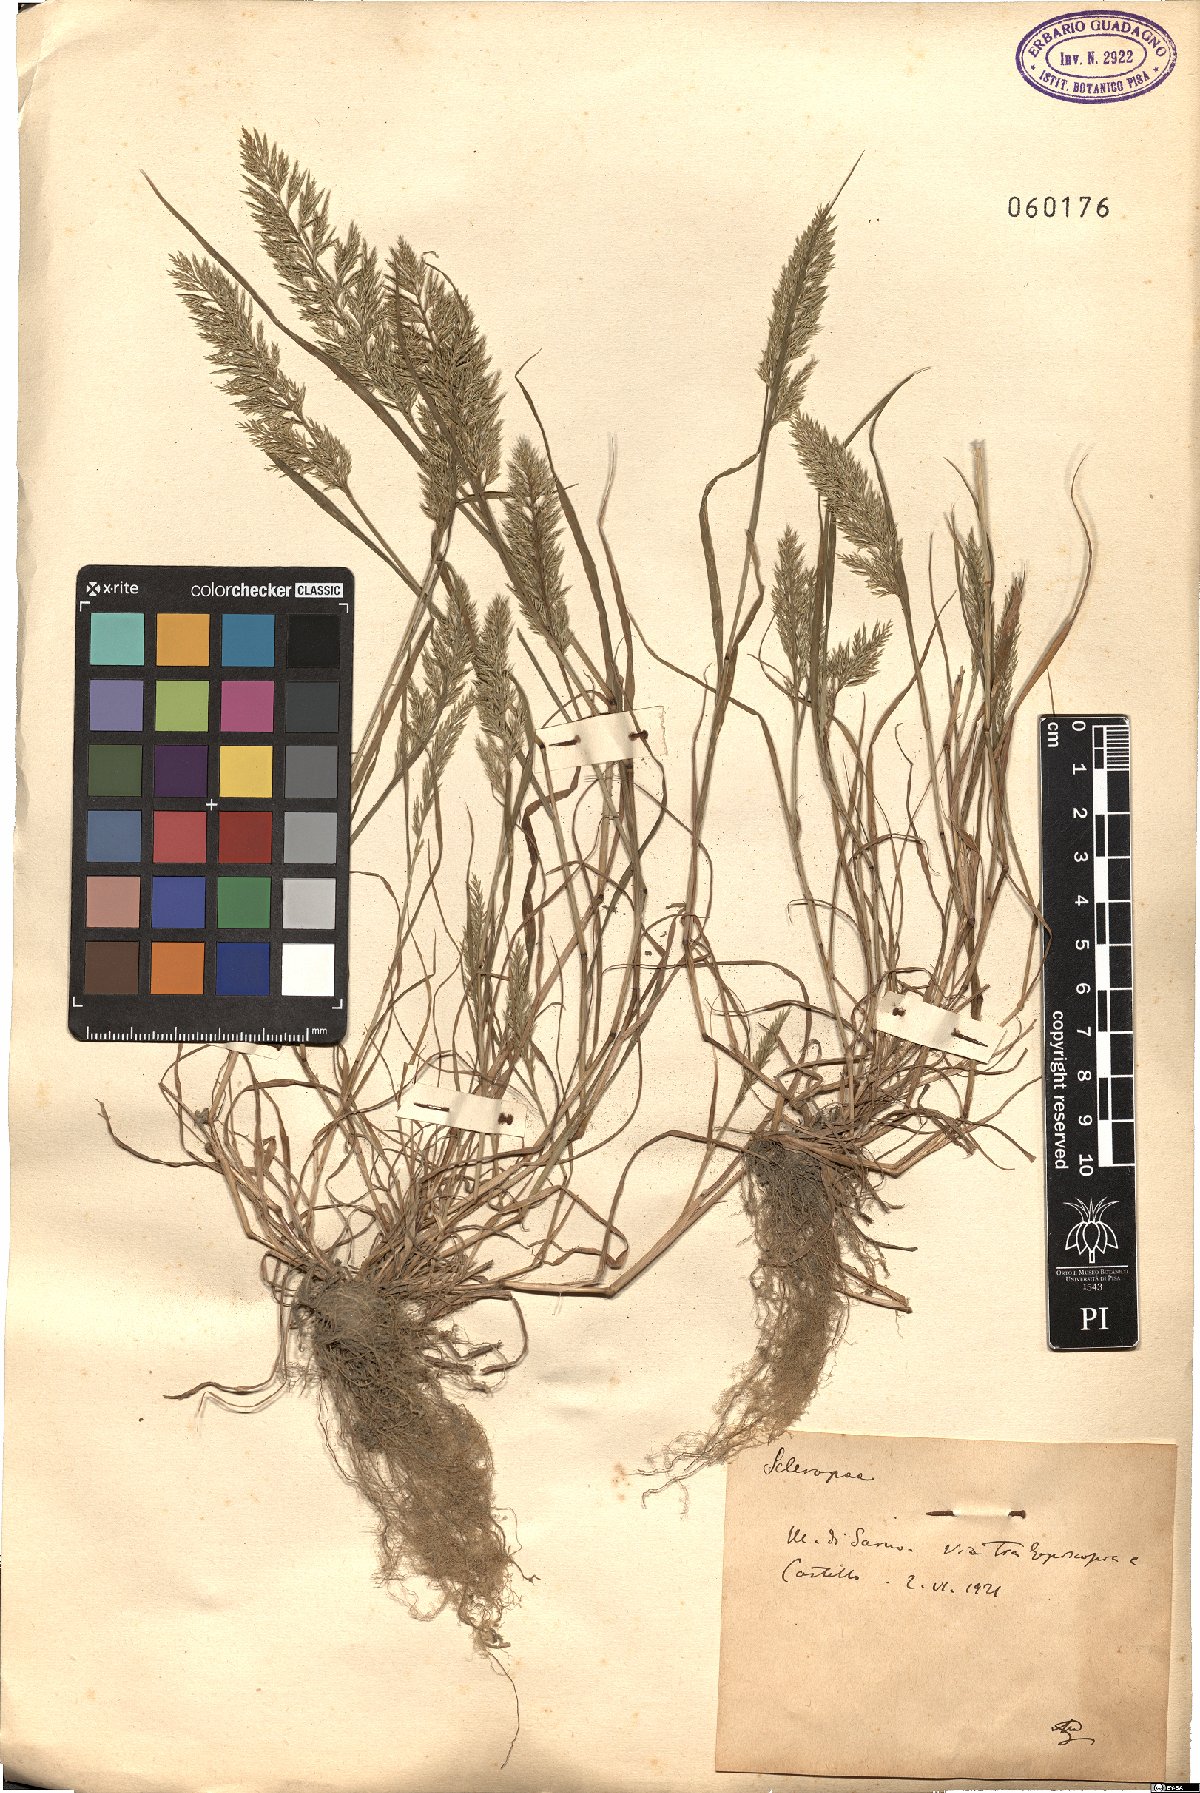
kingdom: Plantae
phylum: Tracheophyta
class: Liliopsida
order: Poales
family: Poaceae
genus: Catapodium
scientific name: Catapodium
